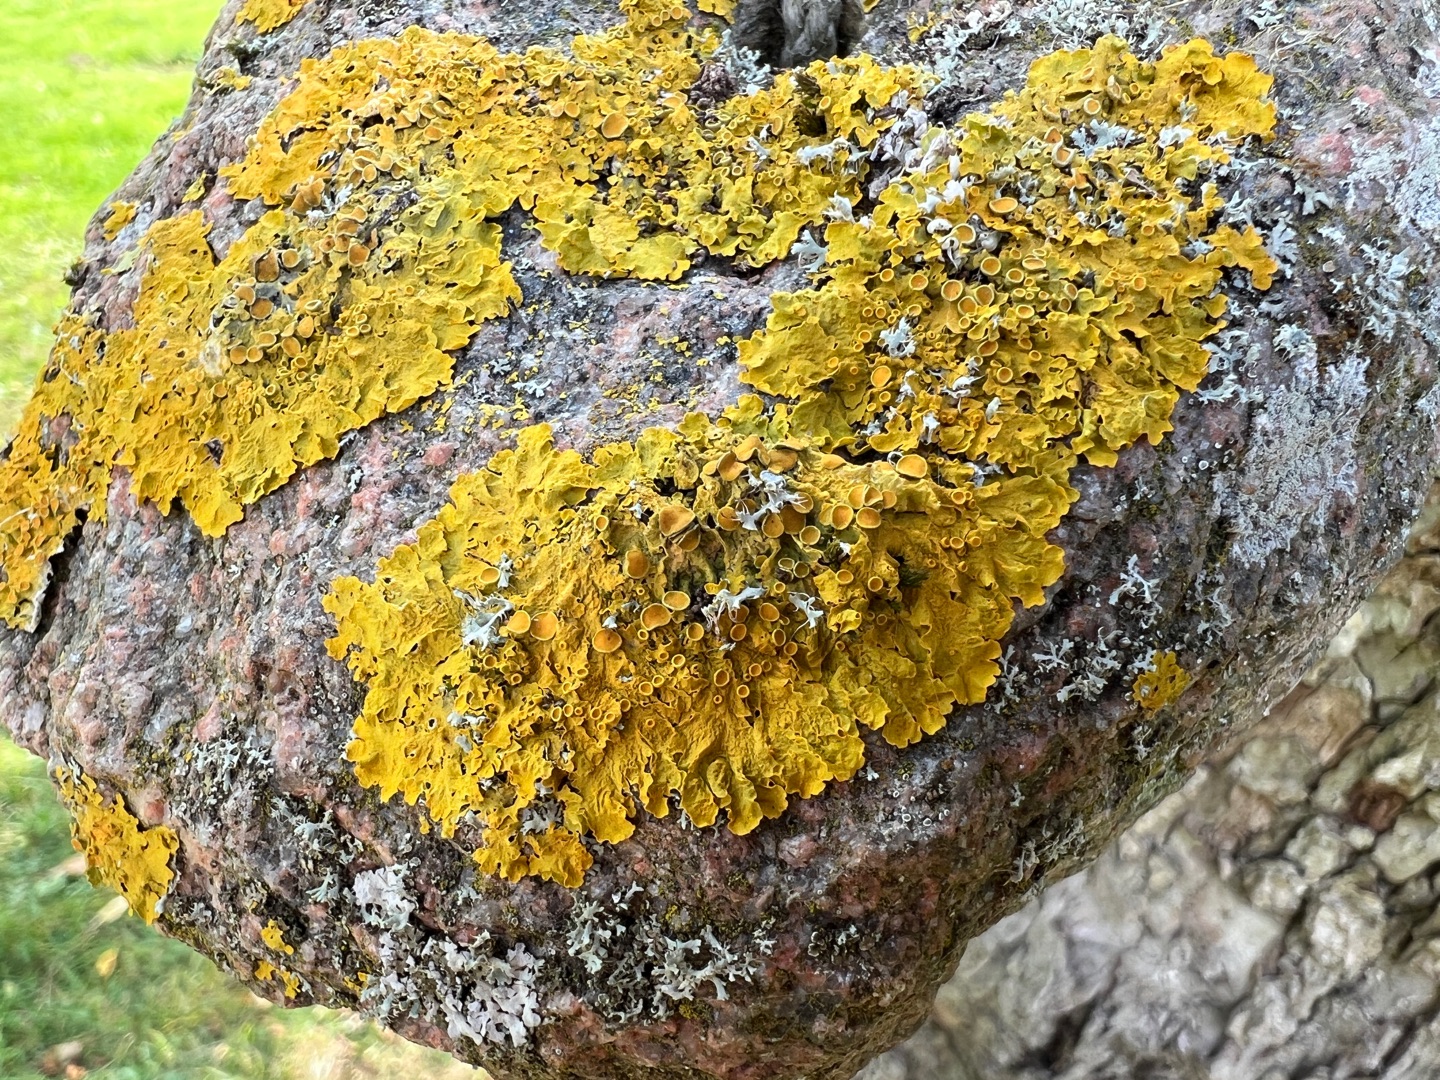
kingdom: Fungi
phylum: Ascomycota
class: Lecanoromycetes
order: Teloschistales
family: Teloschistaceae
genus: Xanthoria
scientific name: Xanthoria parietina
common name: Almindelig væggelav
